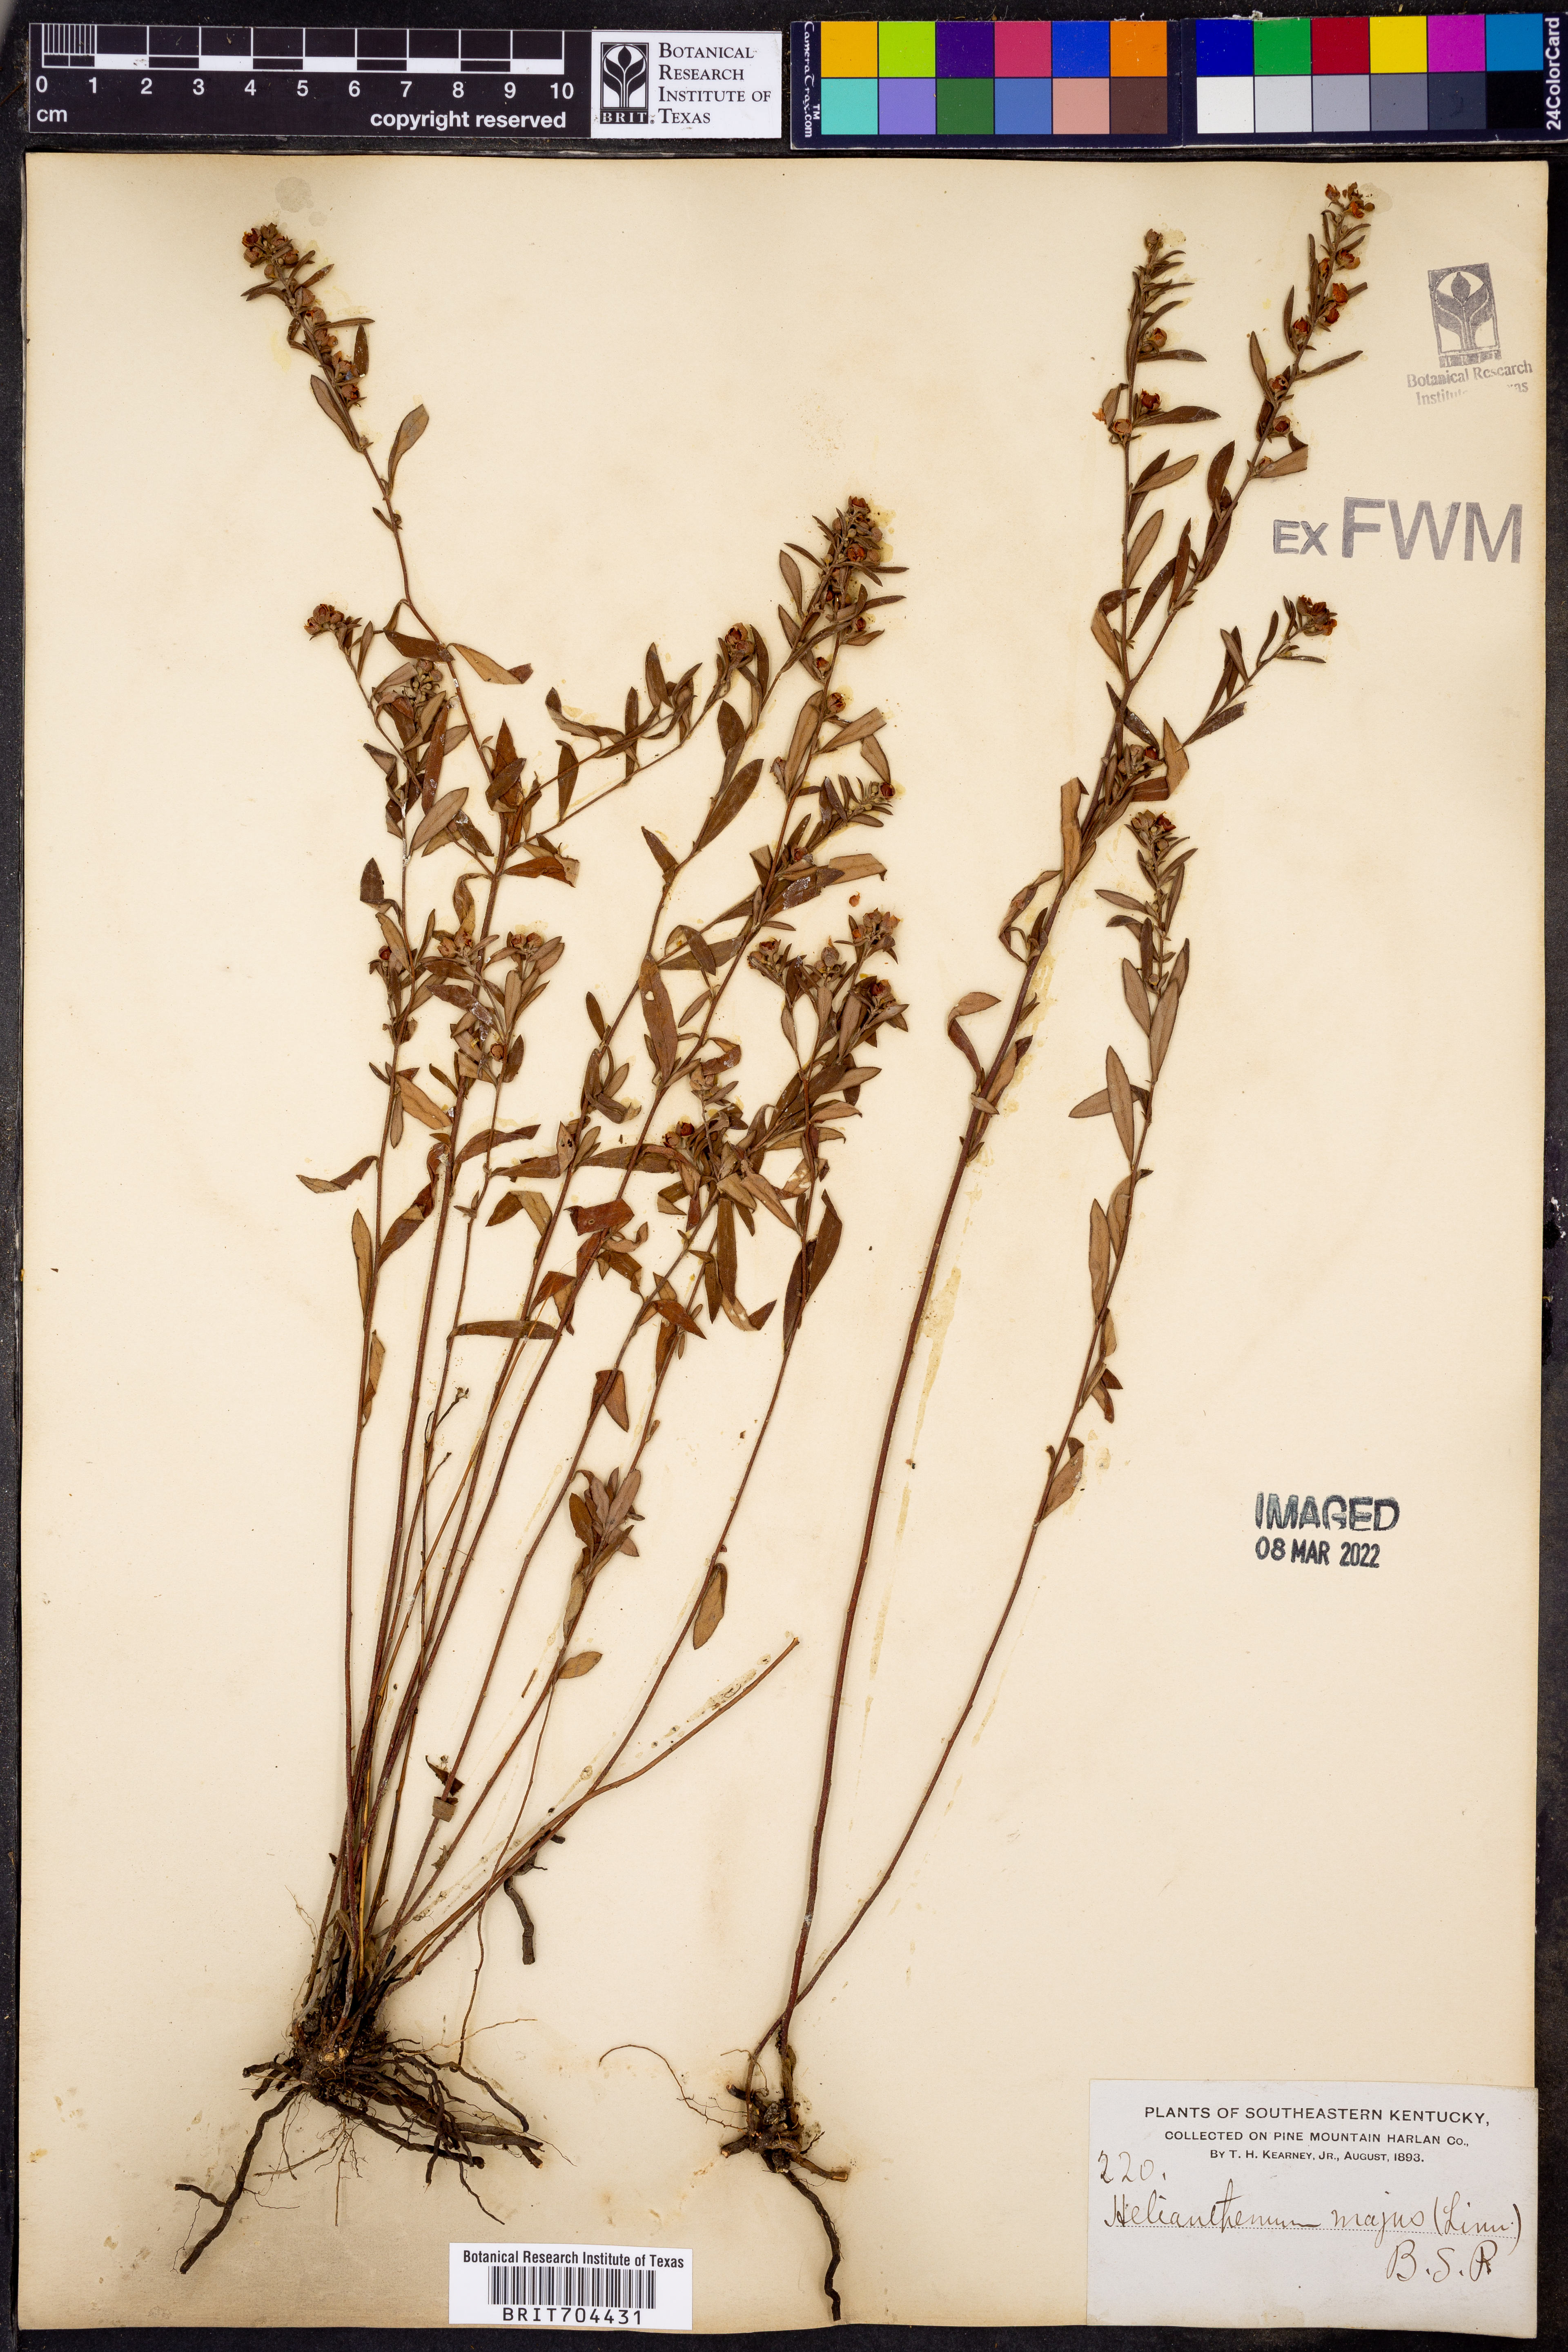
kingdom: Plantae
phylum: Tracheophyta
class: Magnoliopsida
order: Malvales
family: Cistaceae
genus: Helianthemum
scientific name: Helianthemum
